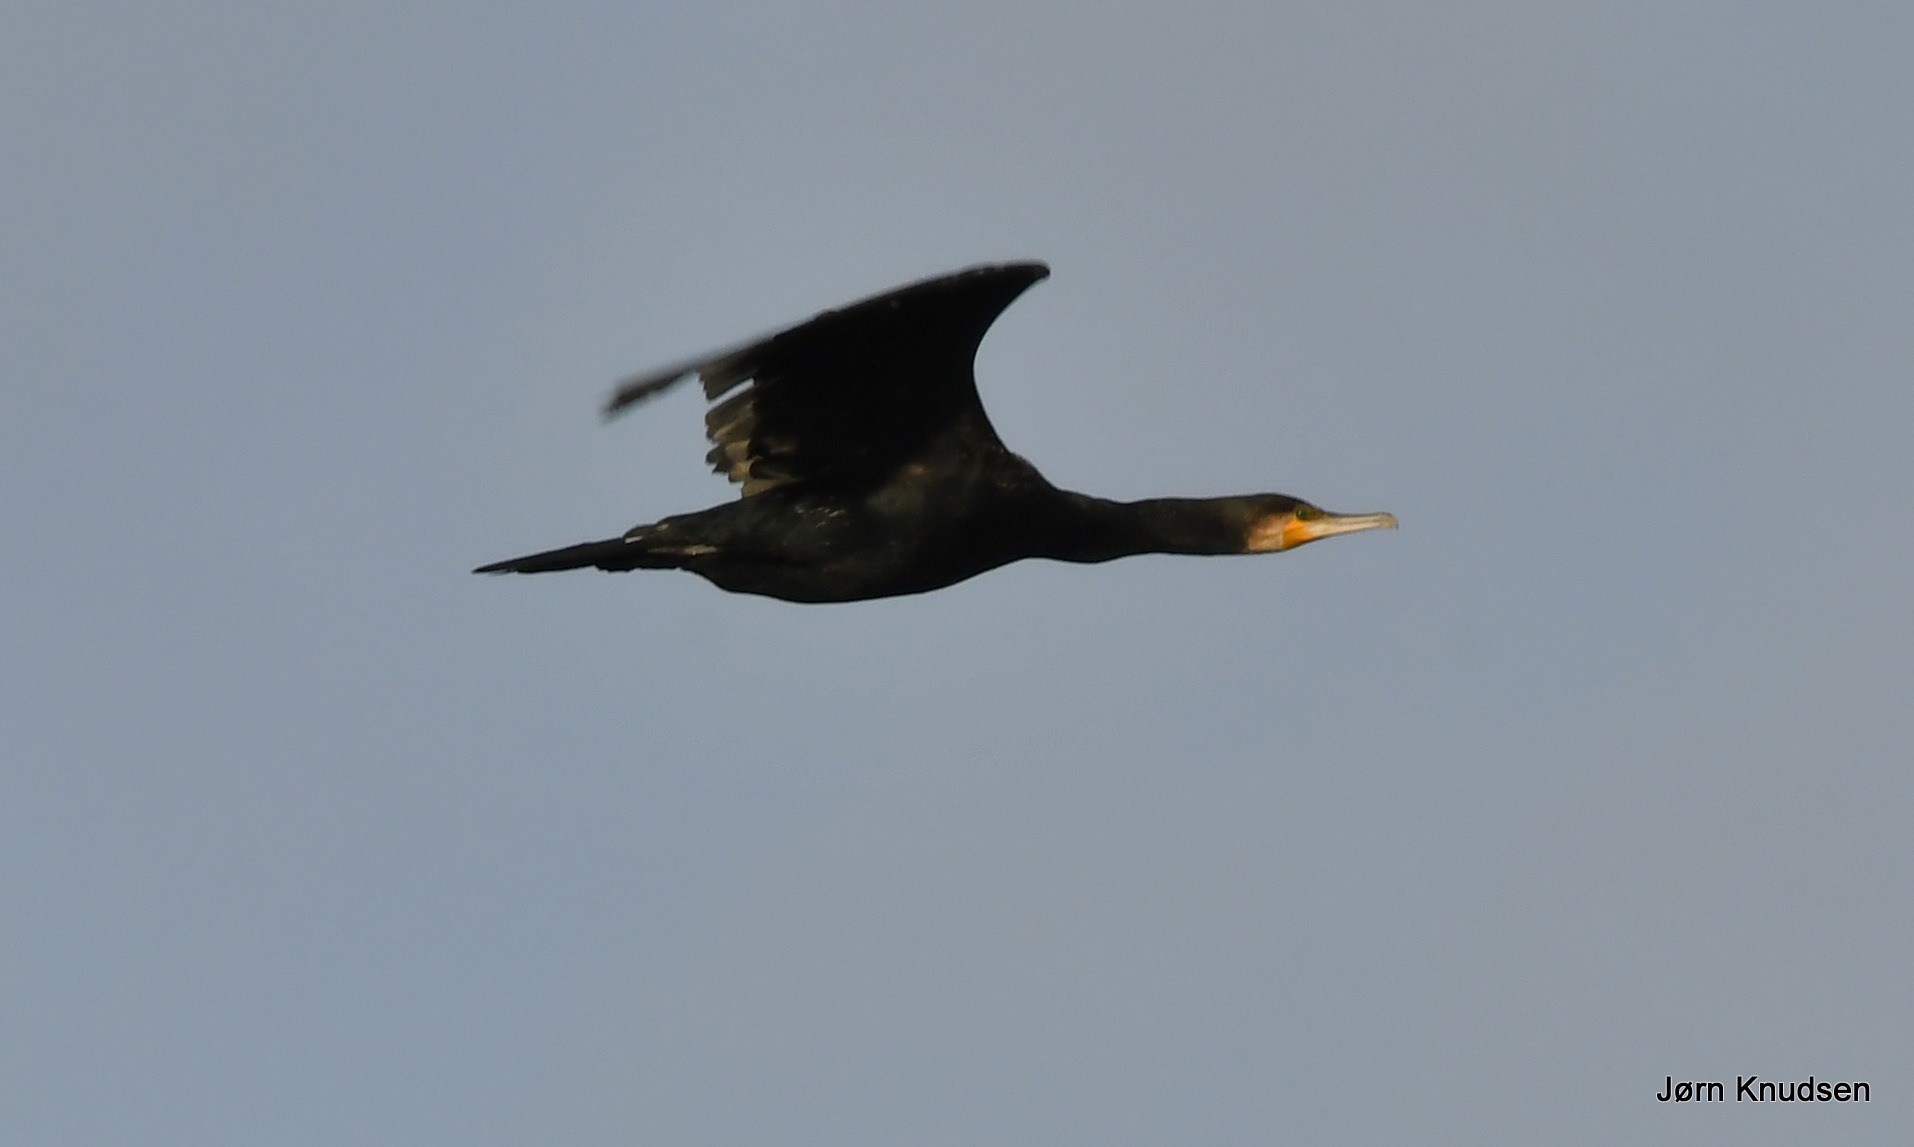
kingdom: Animalia
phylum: Chordata
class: Aves
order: Suliformes
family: Phalacrocoracidae
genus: Phalacrocorax
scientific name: Phalacrocorax carbo
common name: Skarv
